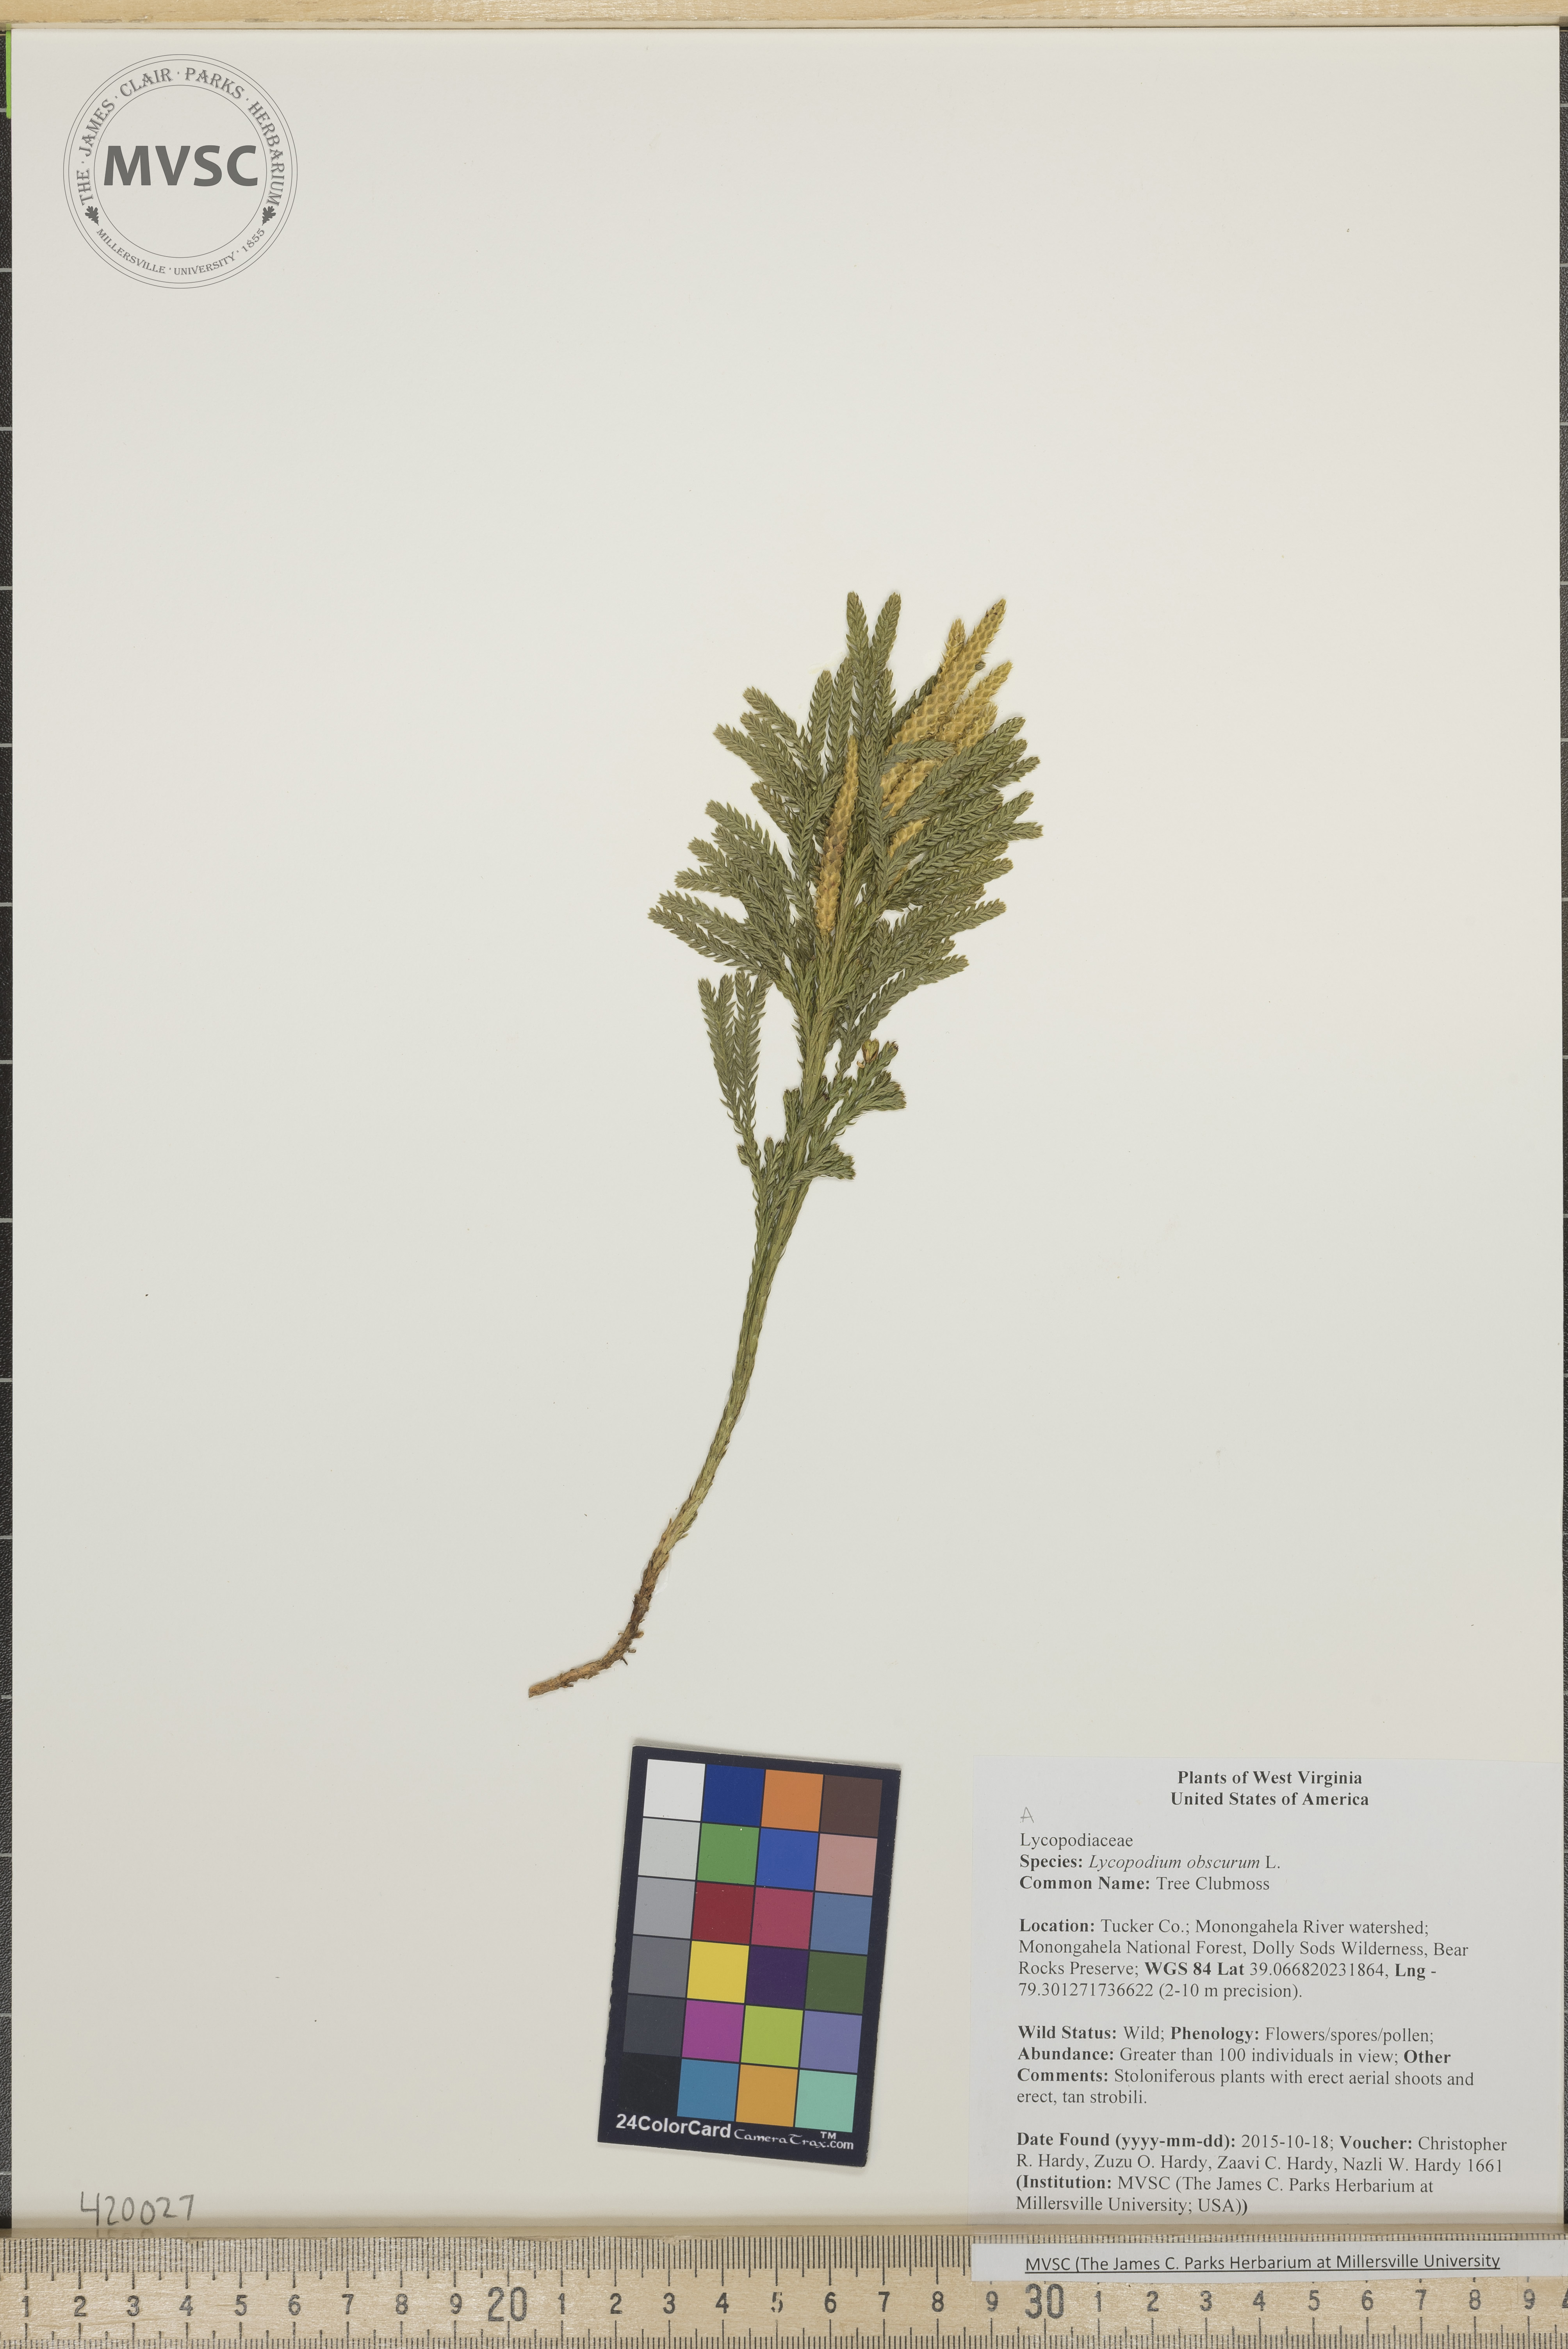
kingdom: Plantae
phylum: Tracheophyta
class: Lycopodiopsida
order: Lycopodiales
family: Lycopodiaceae
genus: Dendrolycopodium
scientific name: Dendrolycopodium obscurum
